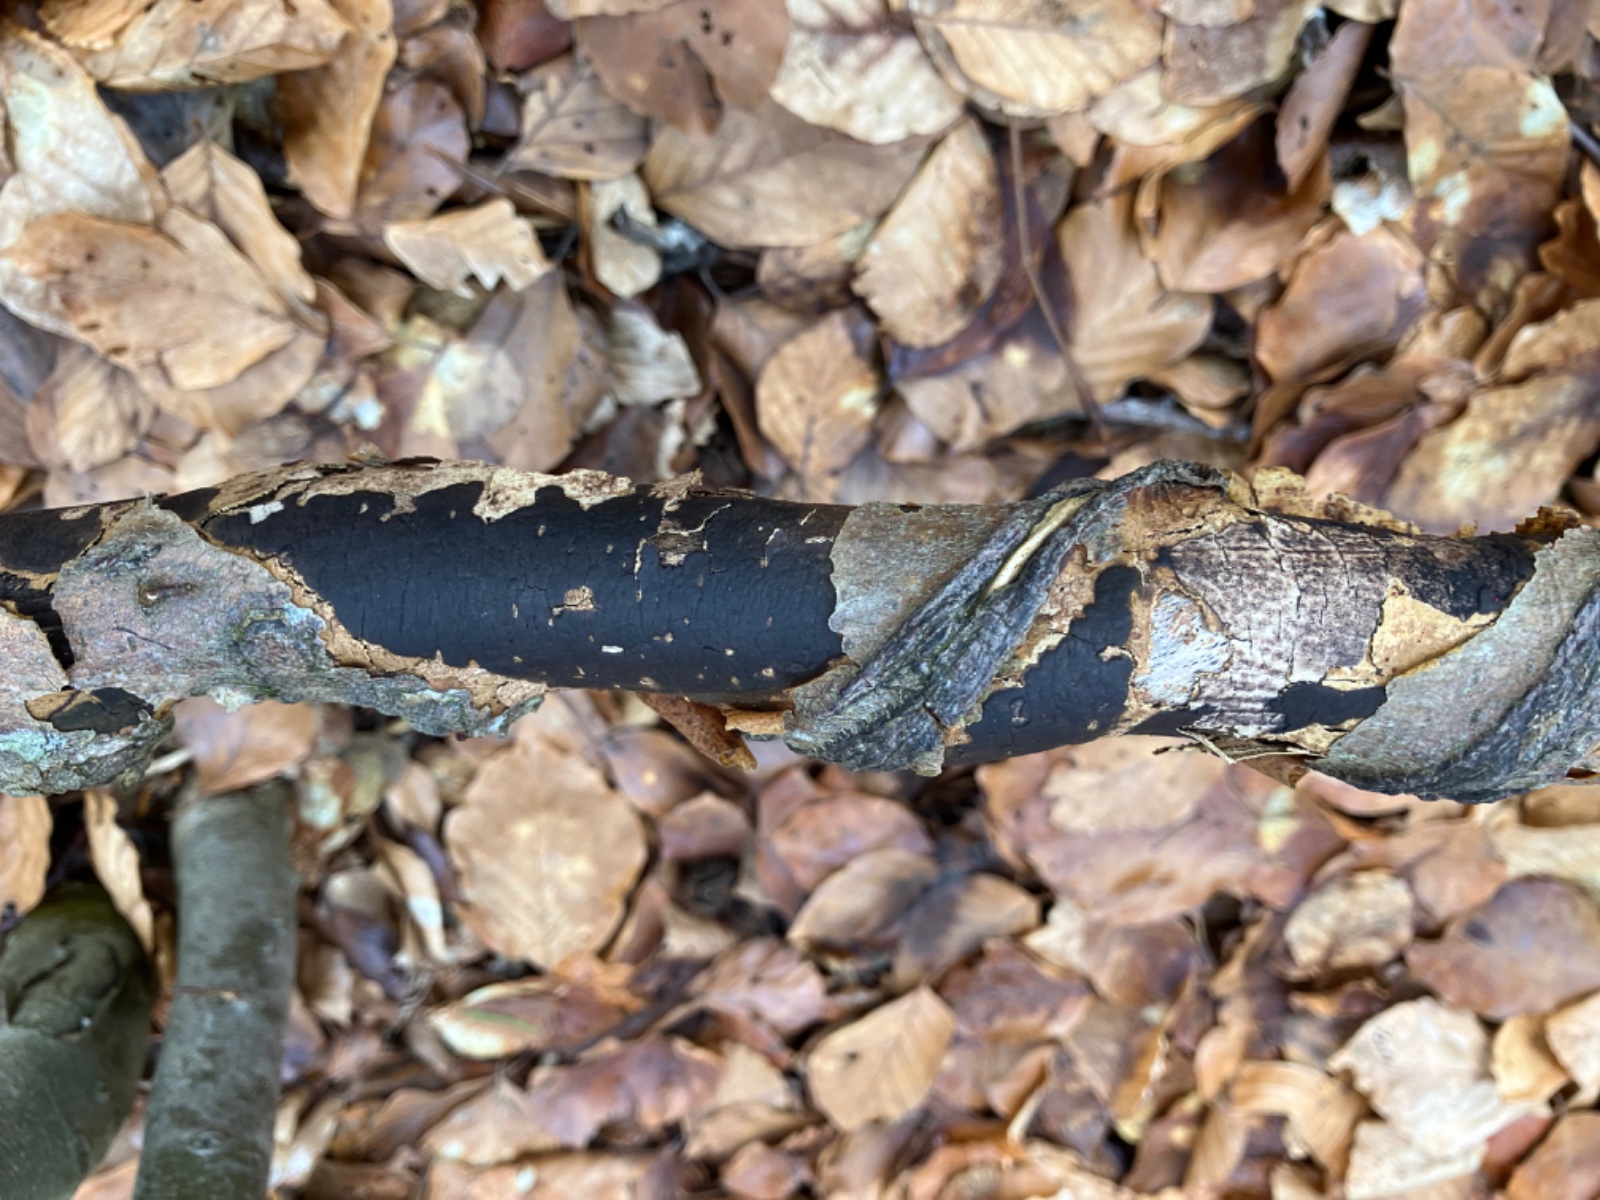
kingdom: Fungi
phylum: Ascomycota
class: Sordariomycetes
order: Xylariales
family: Diatrypaceae
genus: Diatrype
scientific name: Diatrype decorticata
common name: barksprænger-kulskorpe
